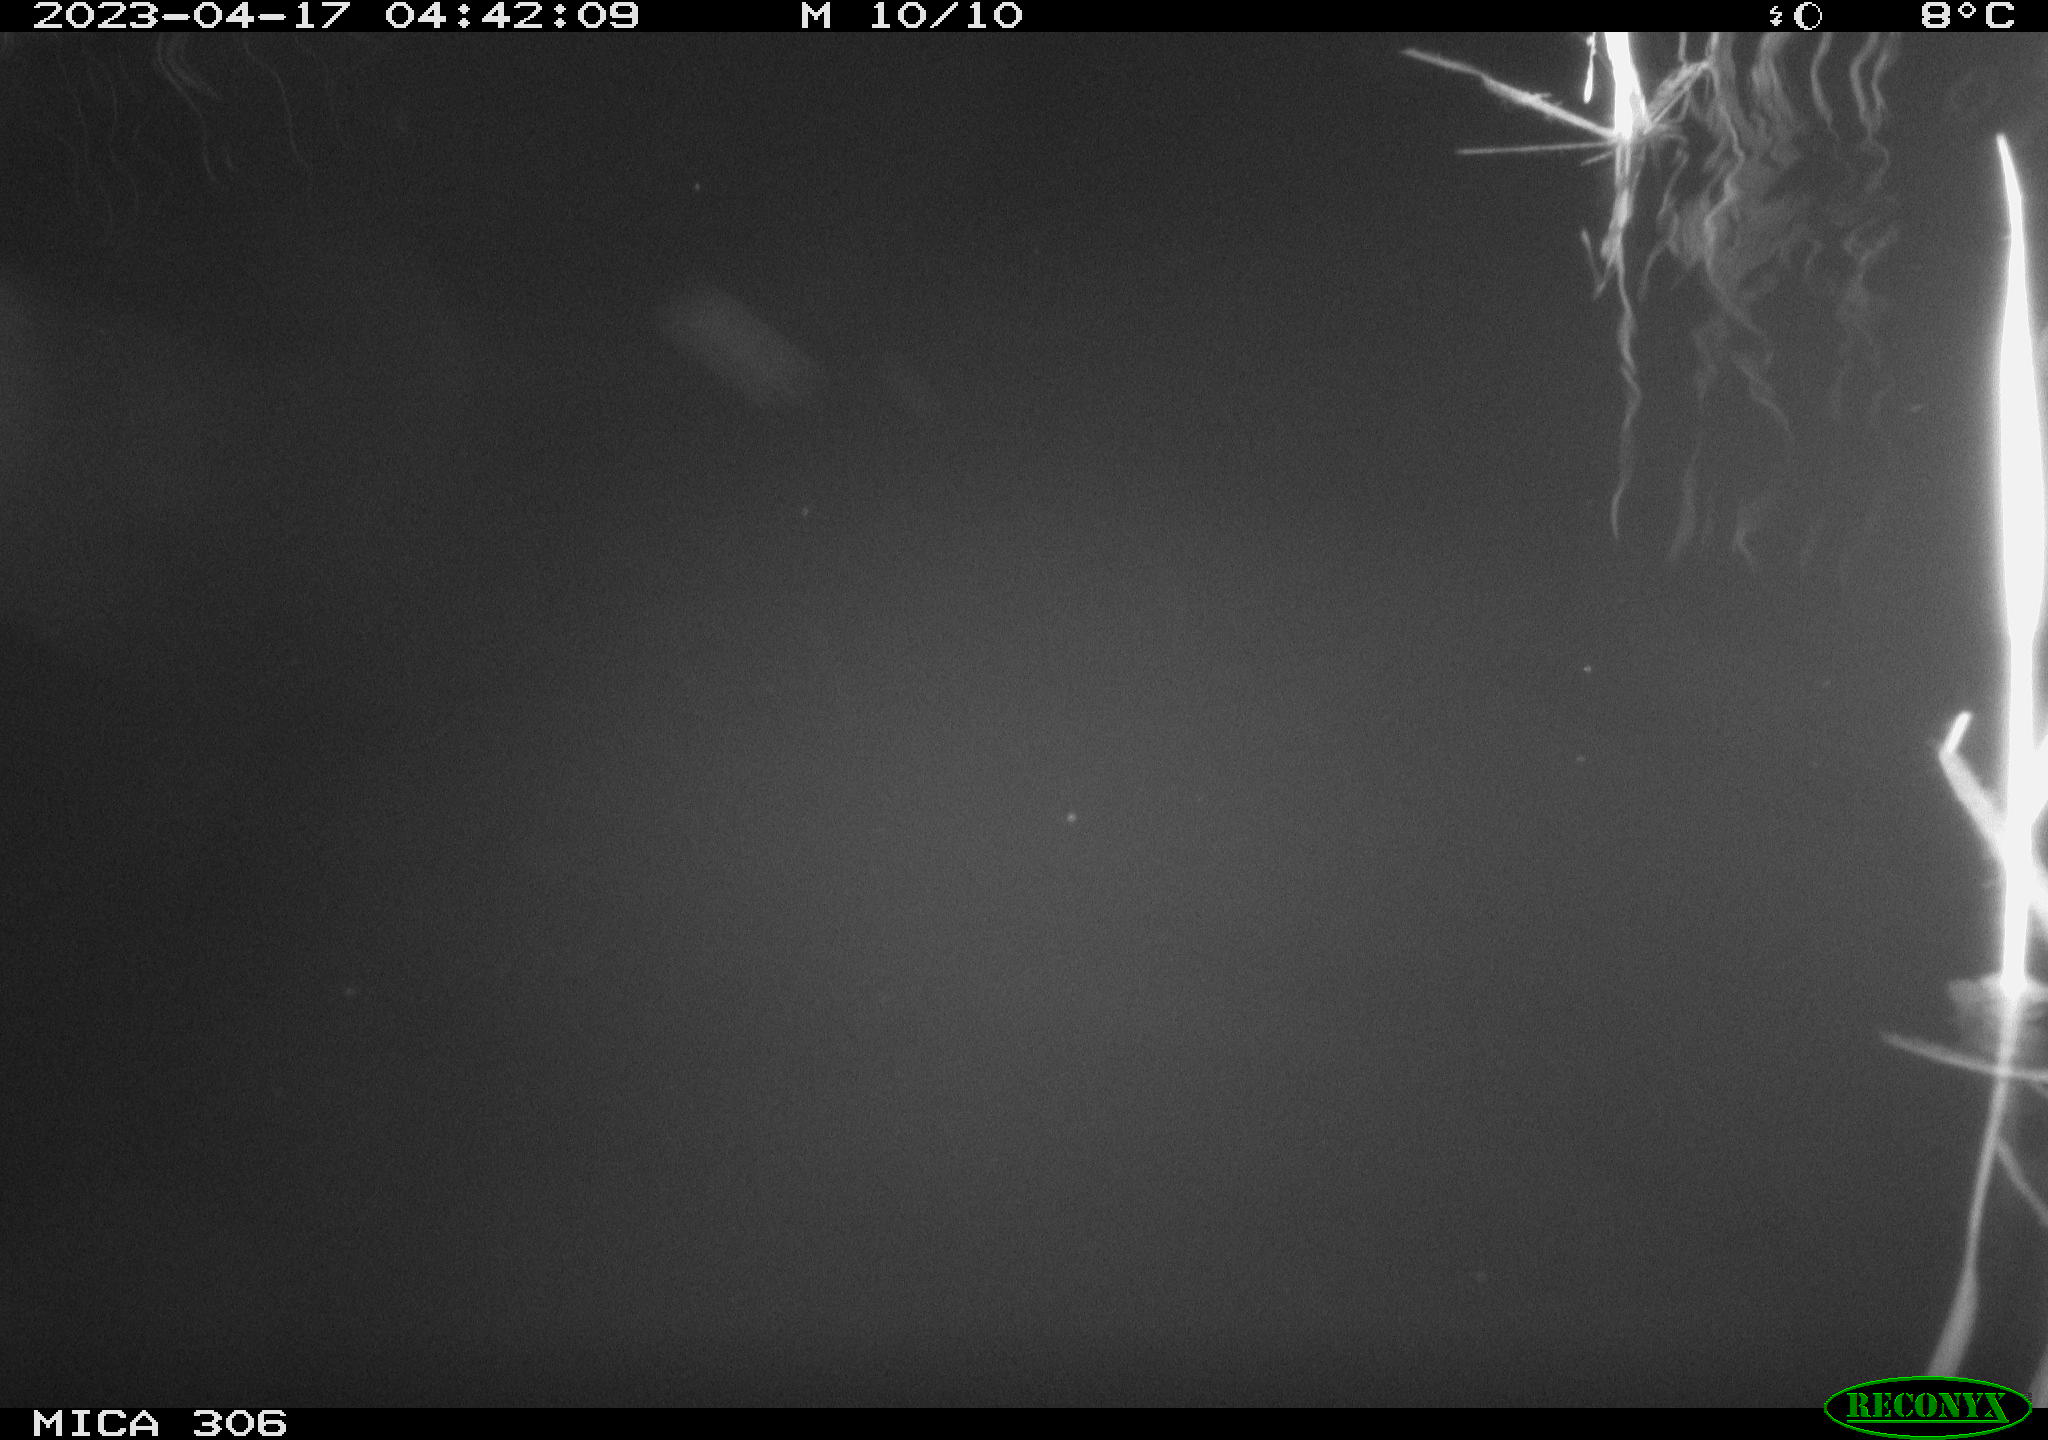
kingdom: Animalia
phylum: Chordata
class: Aves
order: Anseriformes
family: Anatidae
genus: Anas
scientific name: Anas
